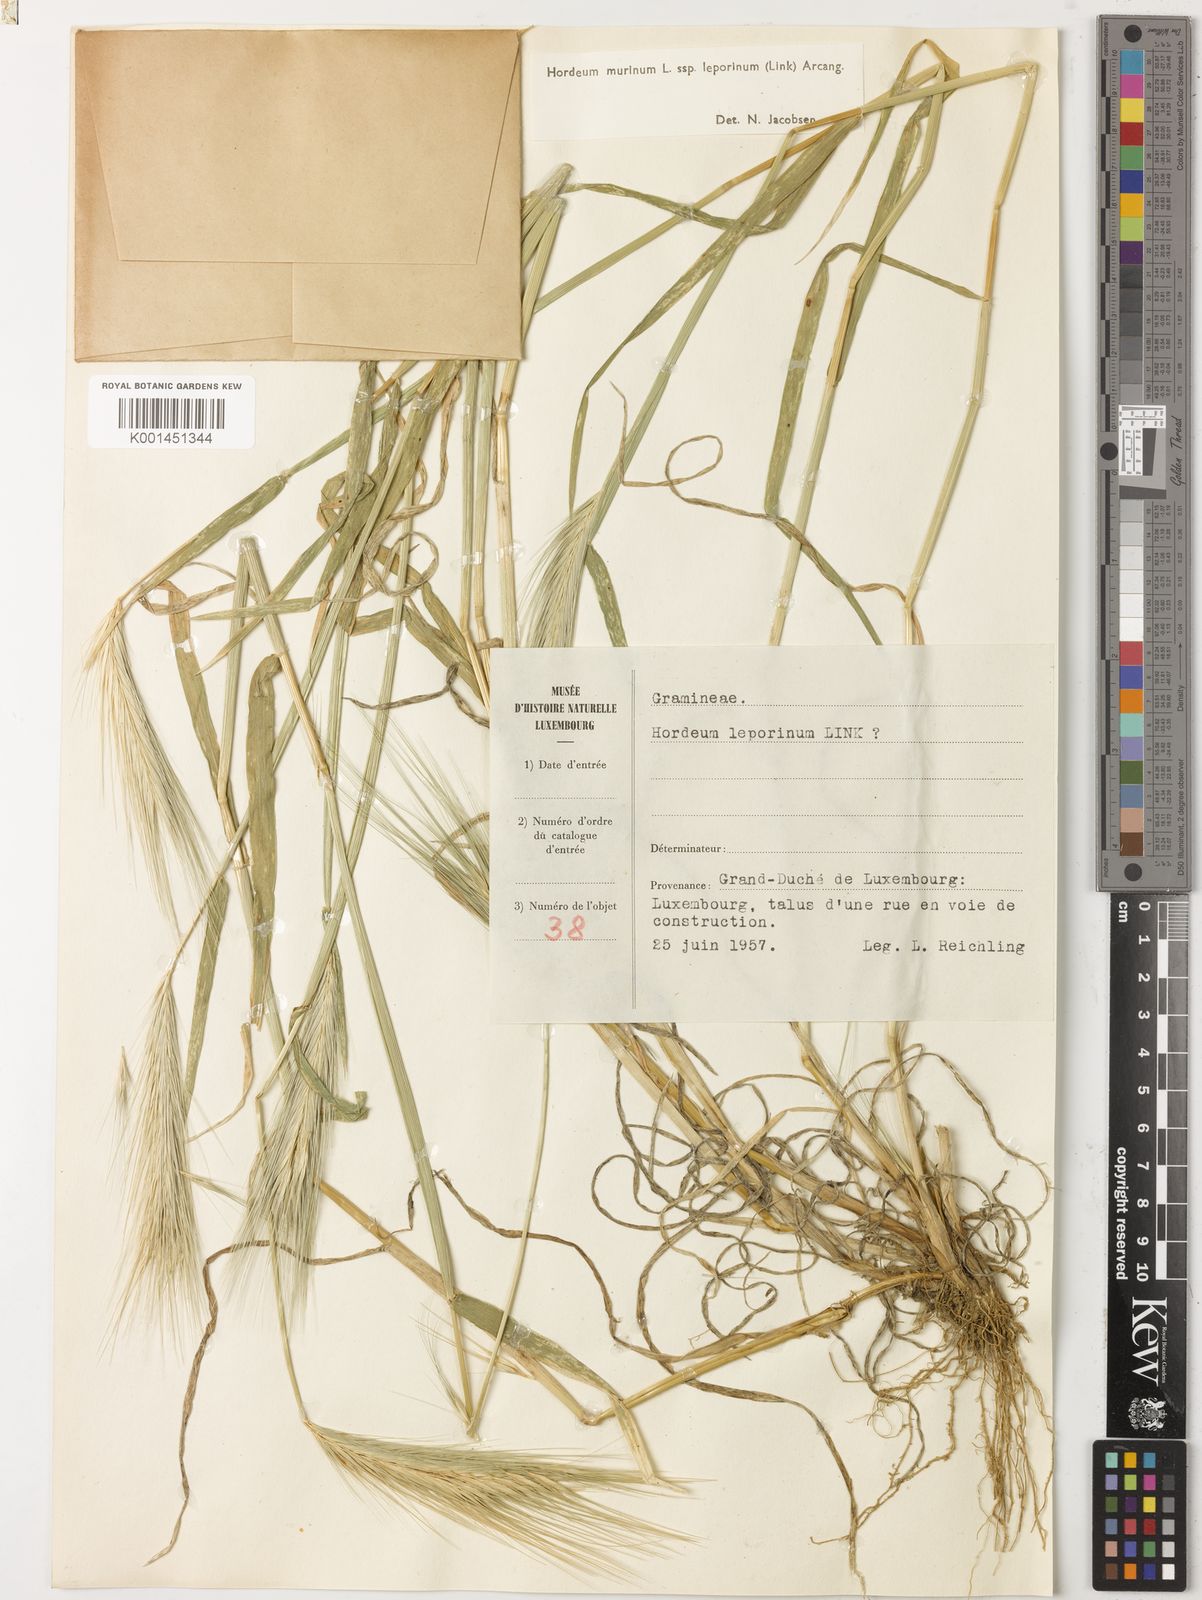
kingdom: Plantae
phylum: Tracheophyta
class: Liliopsida
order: Poales
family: Poaceae
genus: Hordeum
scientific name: Hordeum murinum
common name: Wall barley
